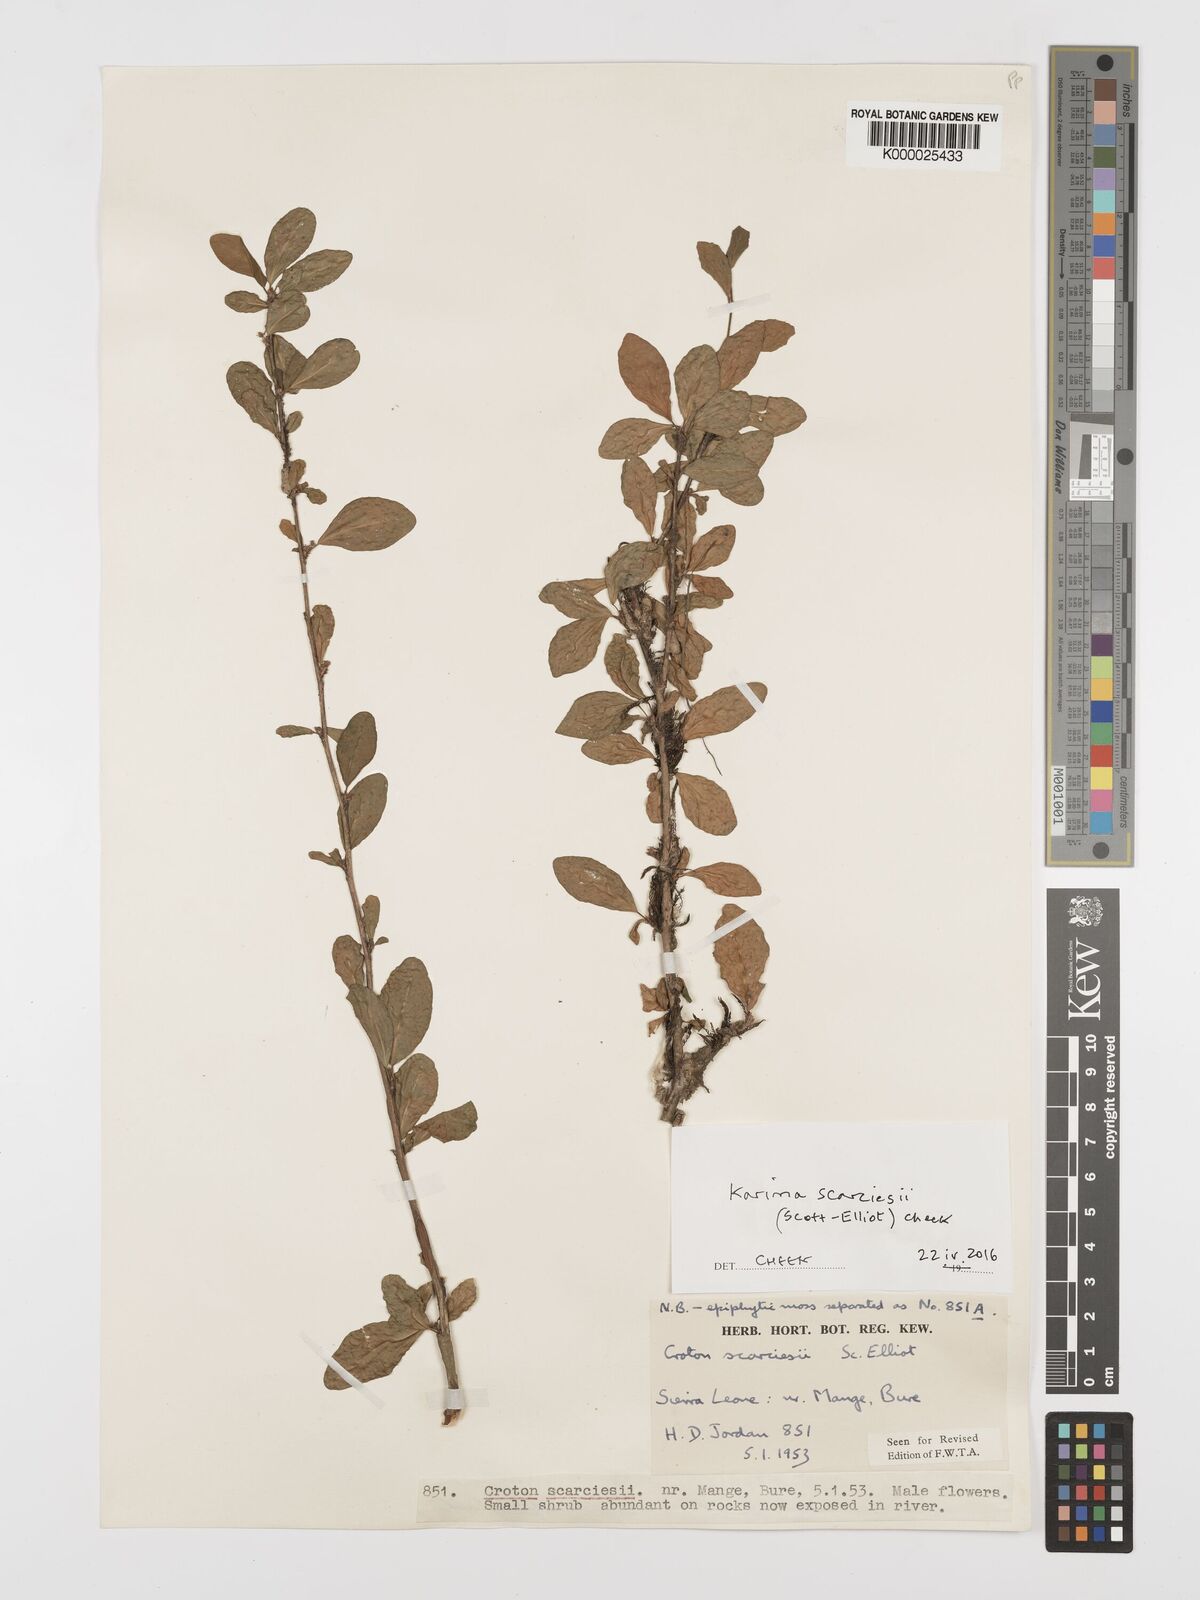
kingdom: Plantae
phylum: Tracheophyta
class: Magnoliopsida
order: Gentianales
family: Rubiaceae
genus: Hymenocoleus
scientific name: Hymenocoleus subipecacuanha
